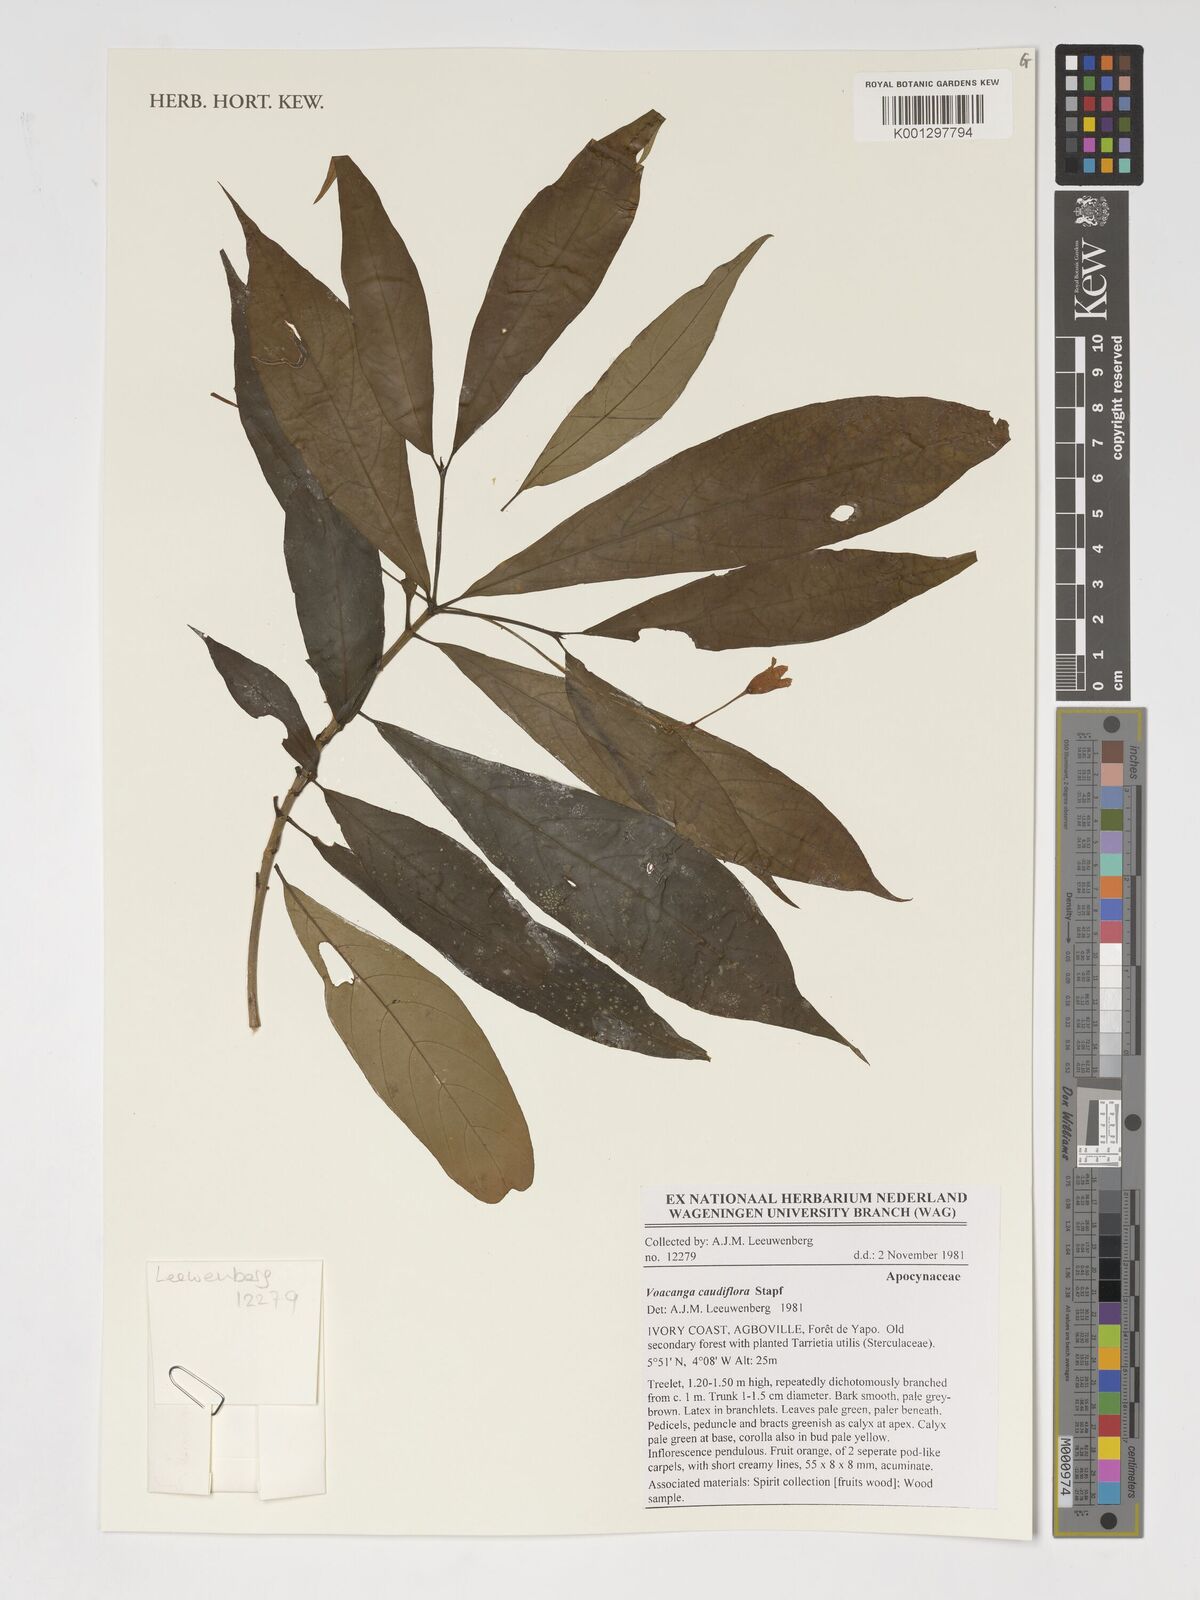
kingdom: Plantae
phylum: Tracheophyta
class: Magnoliopsida
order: Gentianales
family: Apocynaceae
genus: Voacanga
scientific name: Voacanga caudiflora
